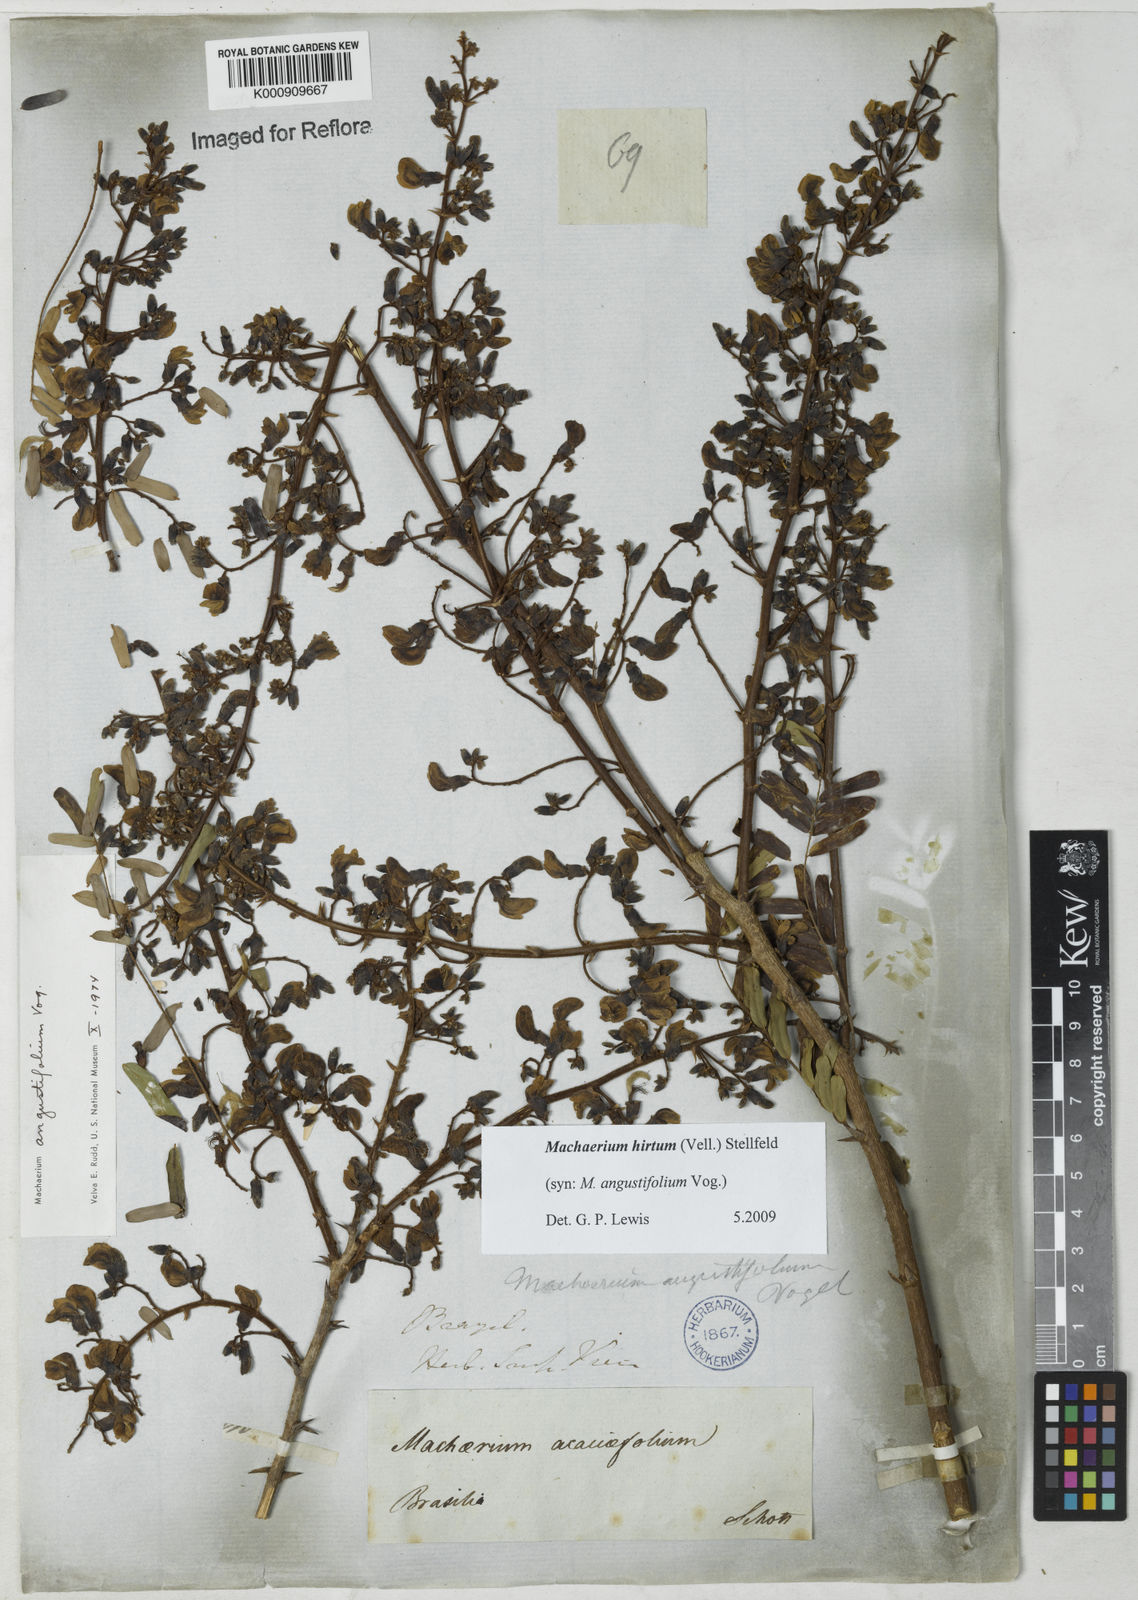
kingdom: Plantae
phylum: Tracheophyta
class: Magnoliopsida
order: Fabales
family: Fabaceae
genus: Machaerium
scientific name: Machaerium hirtum
